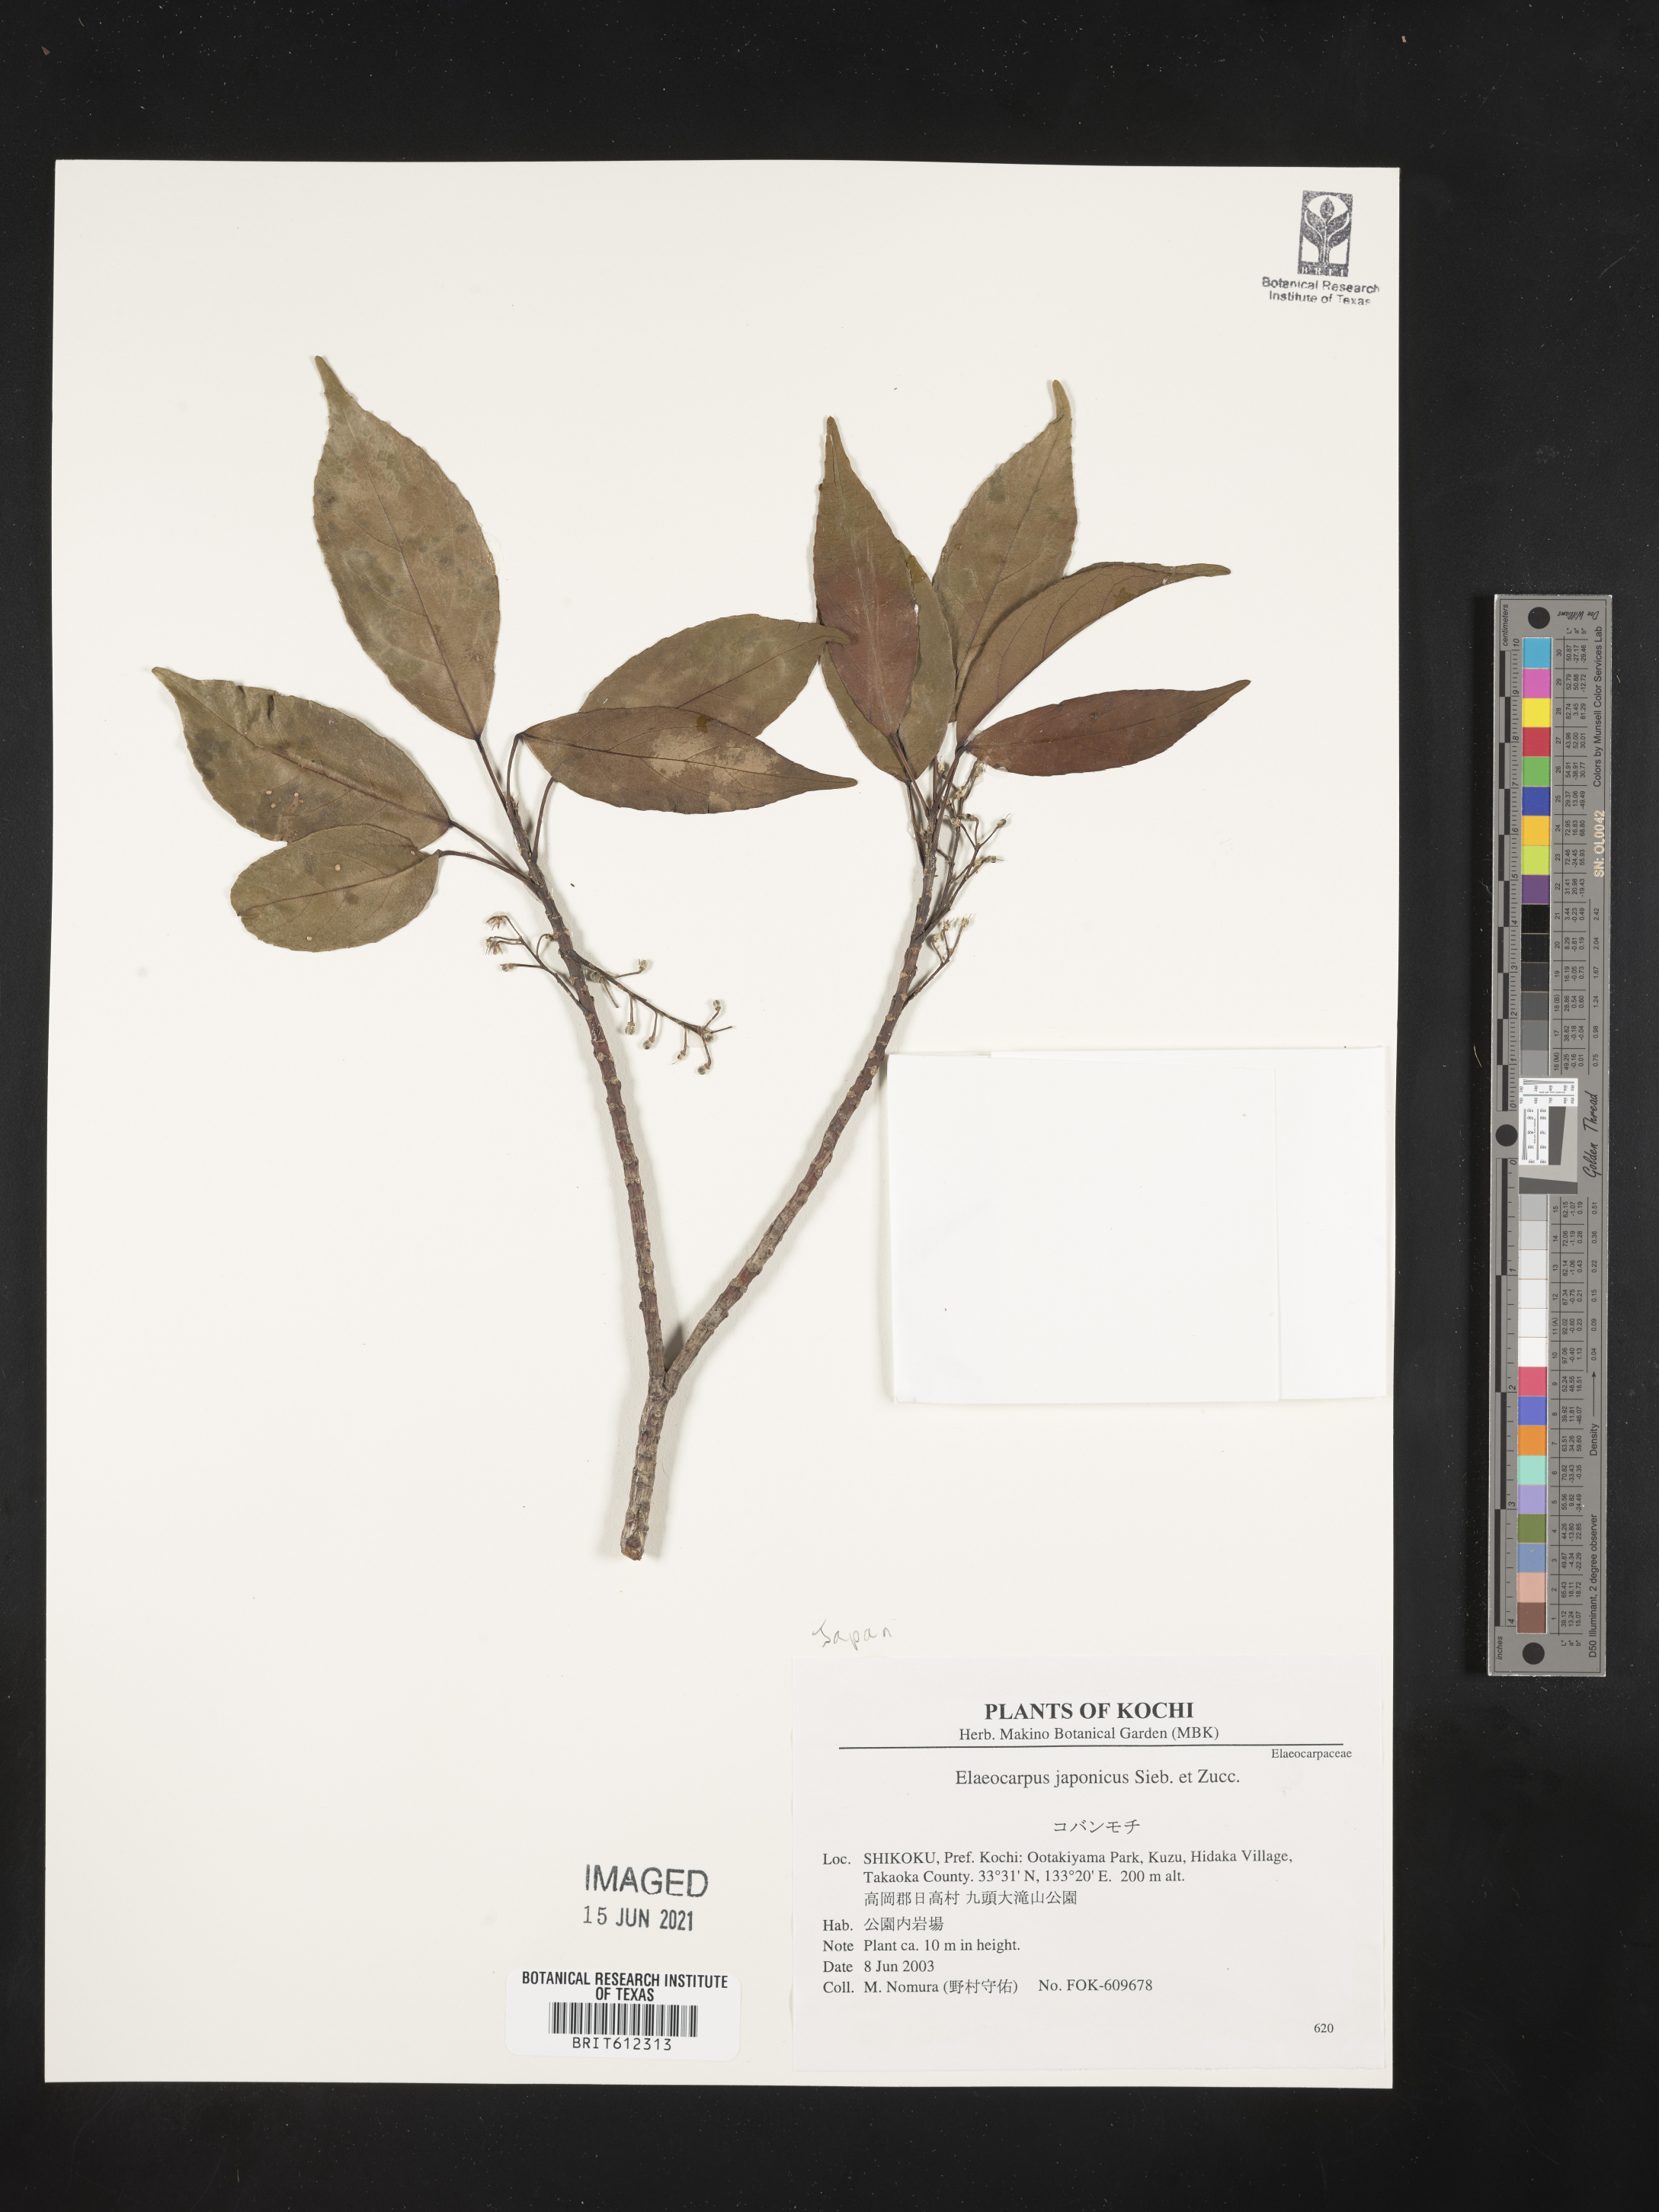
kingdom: Plantae
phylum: Tracheophyta
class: Magnoliopsida
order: Oxalidales
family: Elaeocarpaceae
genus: Elaeocarpus
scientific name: Elaeocarpus japonicus
